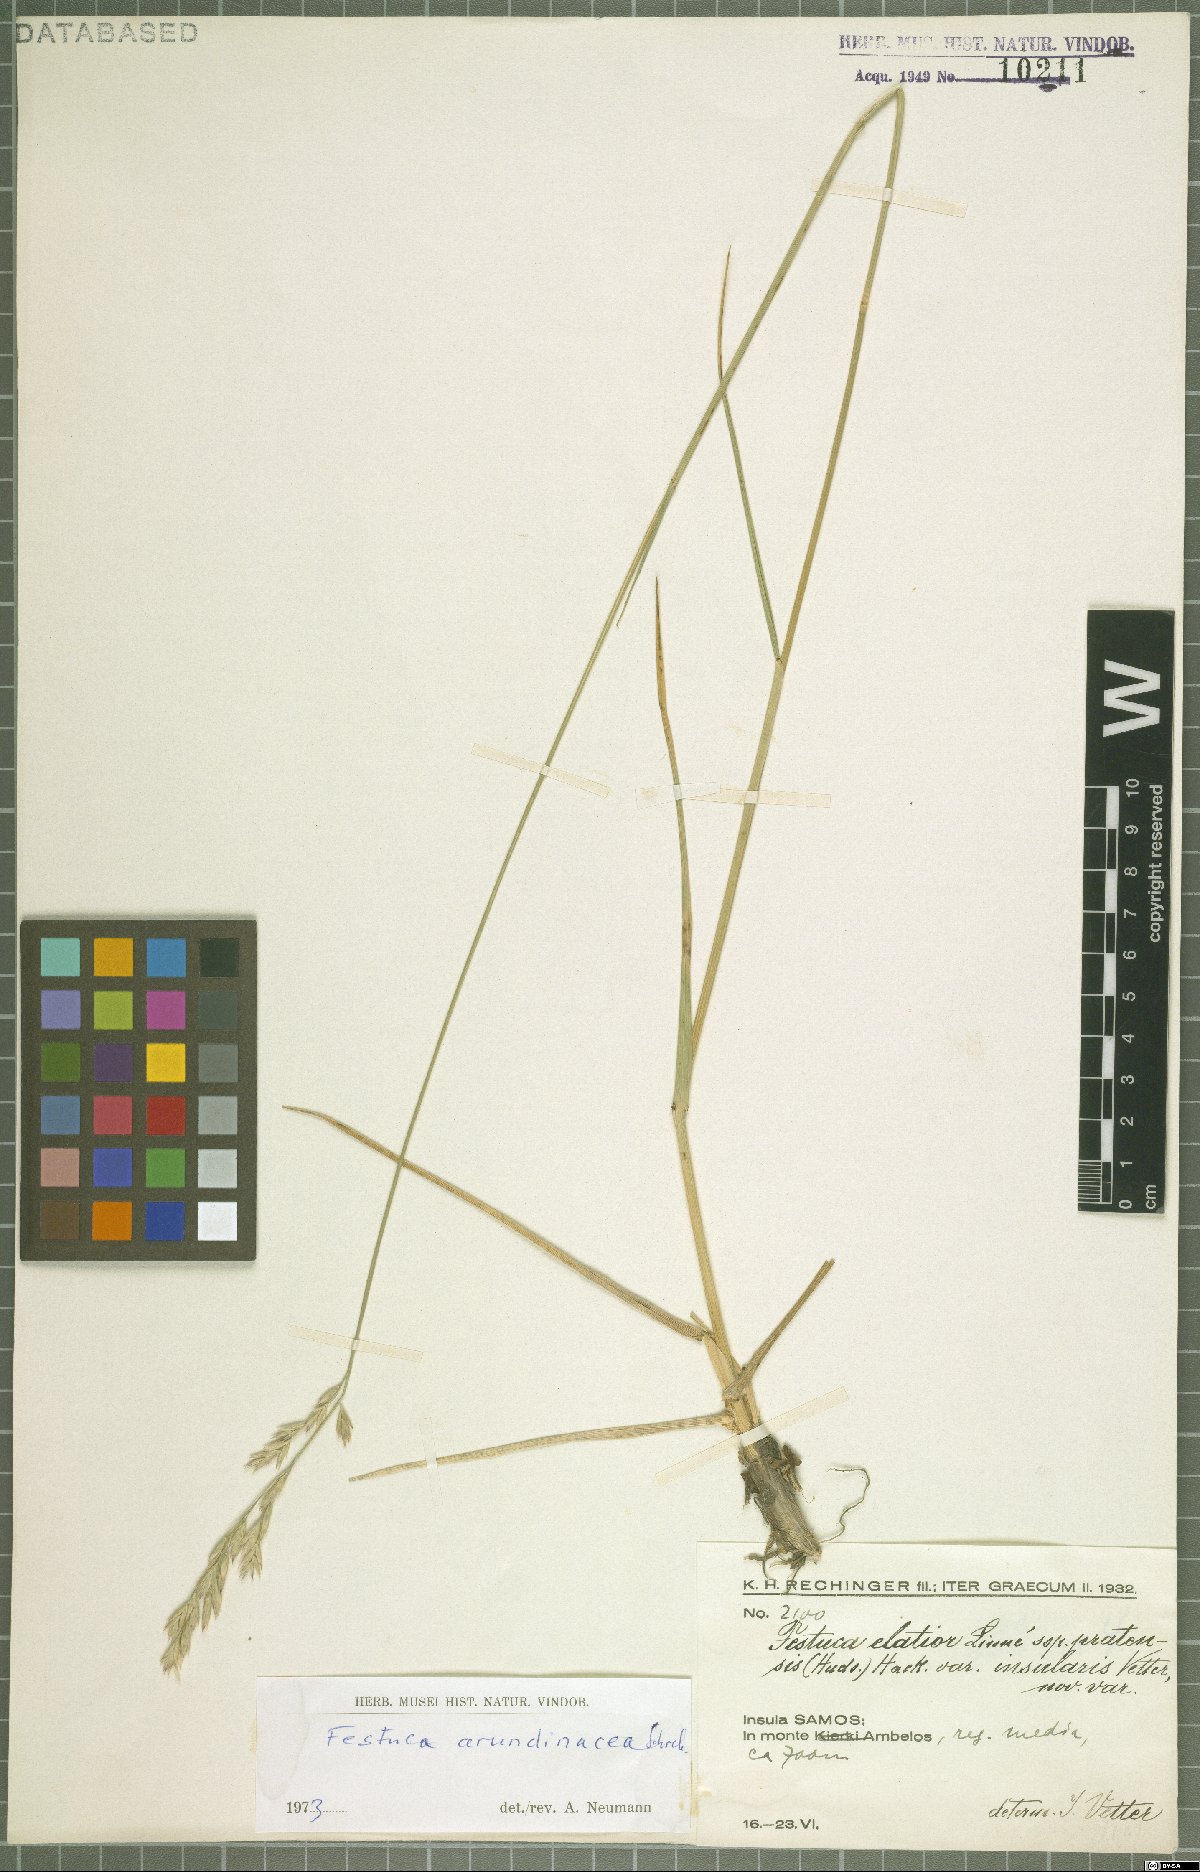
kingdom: Plantae
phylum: Tracheophyta
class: Liliopsida
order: Poales
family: Poaceae
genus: Lolium
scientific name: Lolium arundinaceum
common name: Reed fescue
